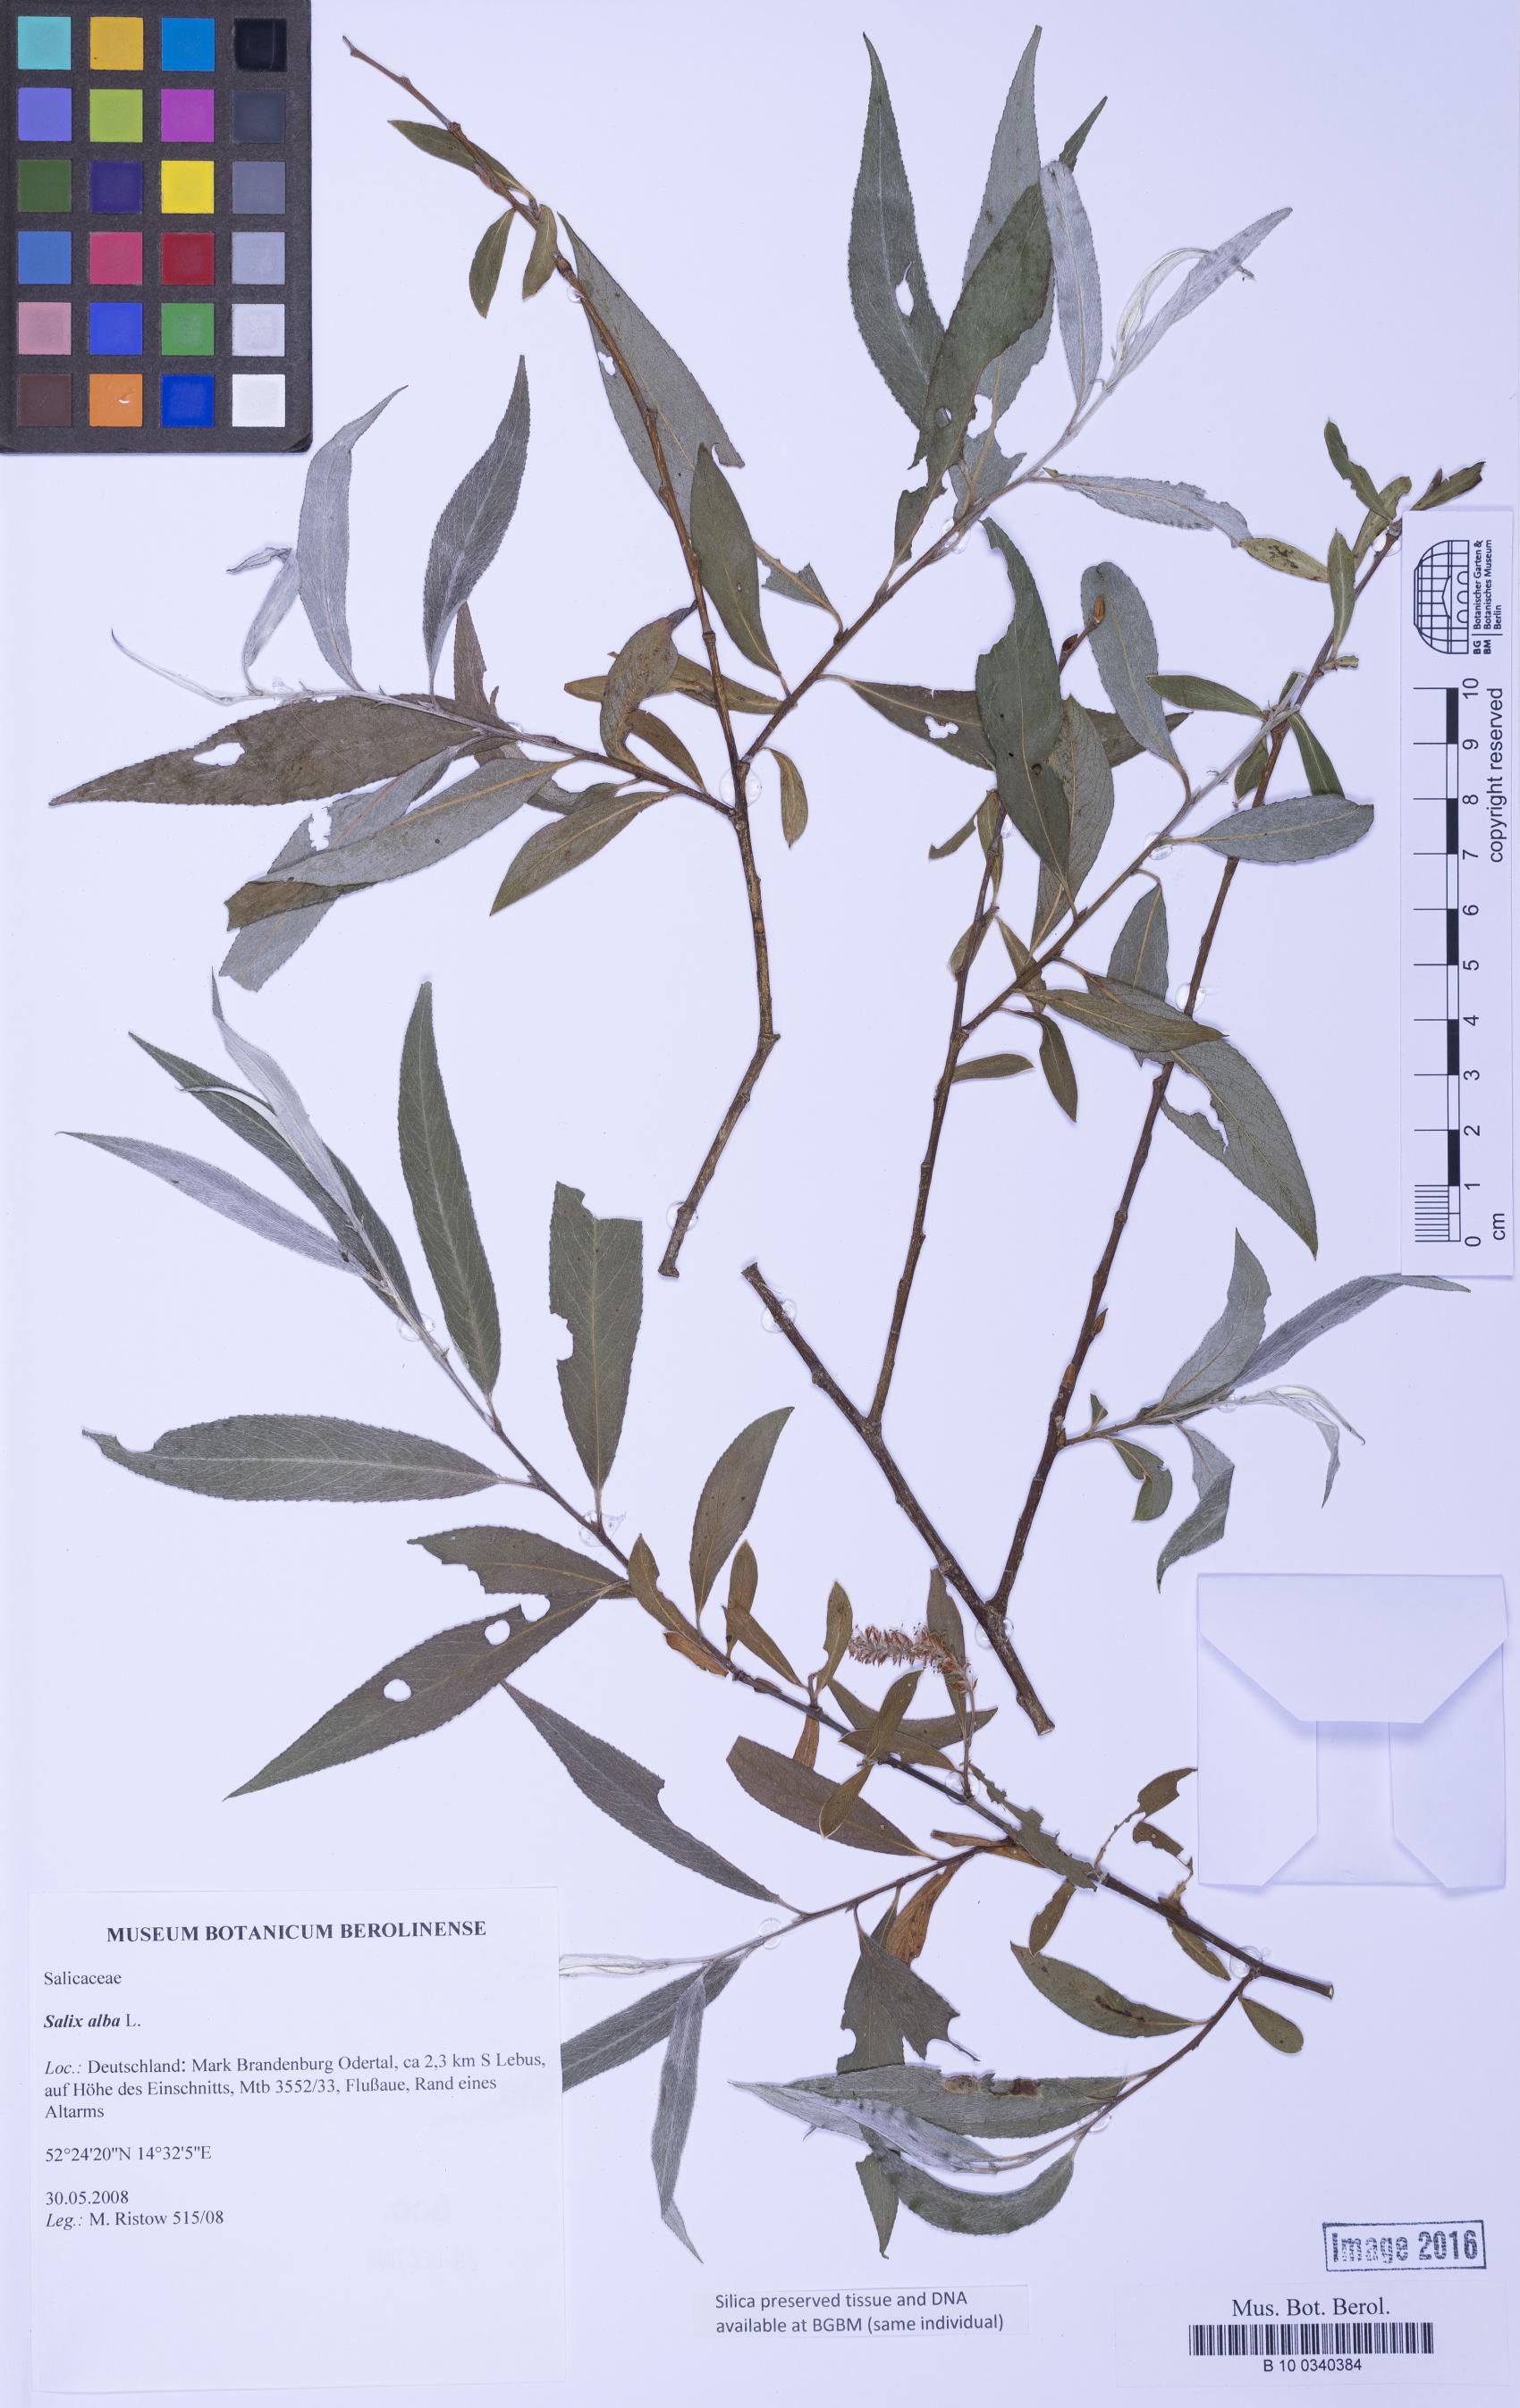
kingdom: Plantae
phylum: Tracheophyta
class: Magnoliopsida
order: Malpighiales
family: Salicaceae
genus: Salix
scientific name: Salix alba
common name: White willow
